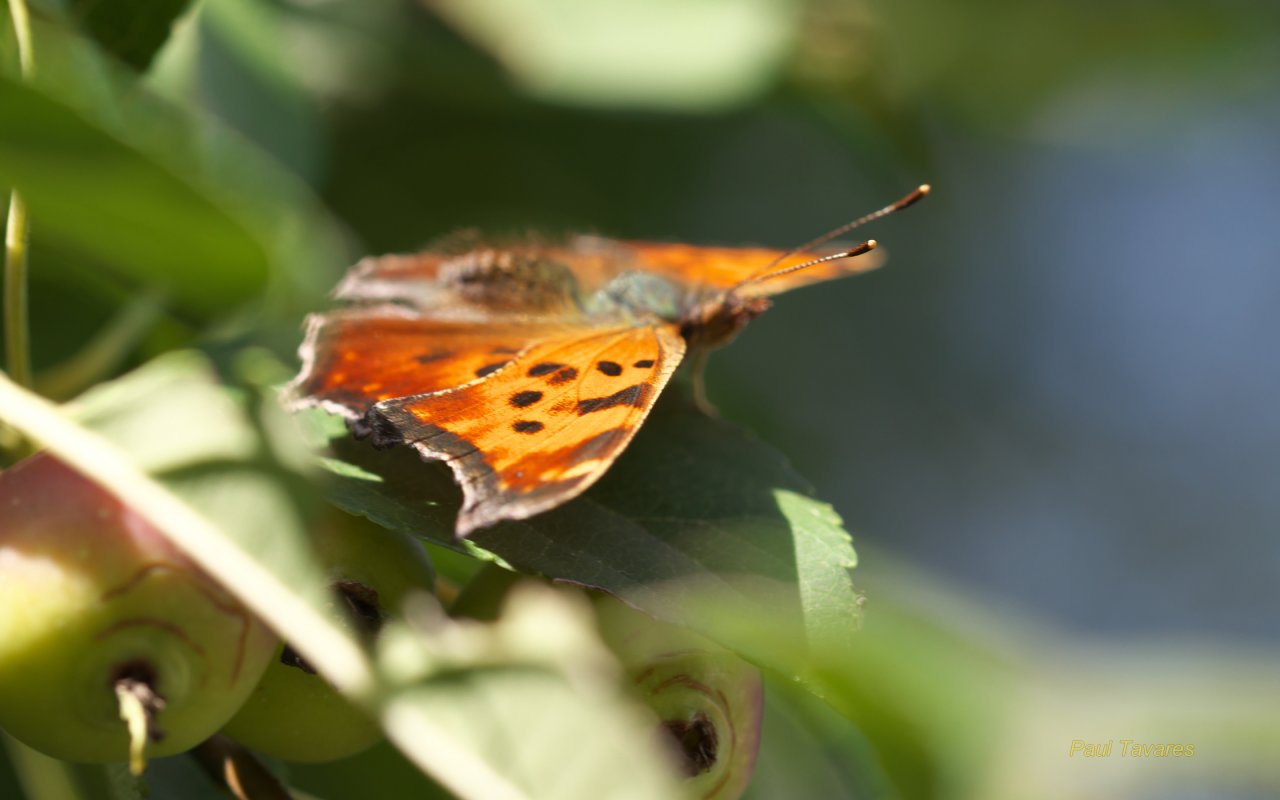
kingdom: Animalia
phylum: Arthropoda
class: Insecta
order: Lepidoptera
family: Nymphalidae
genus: Polygonia
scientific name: Polygonia faunus
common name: Green Comma
